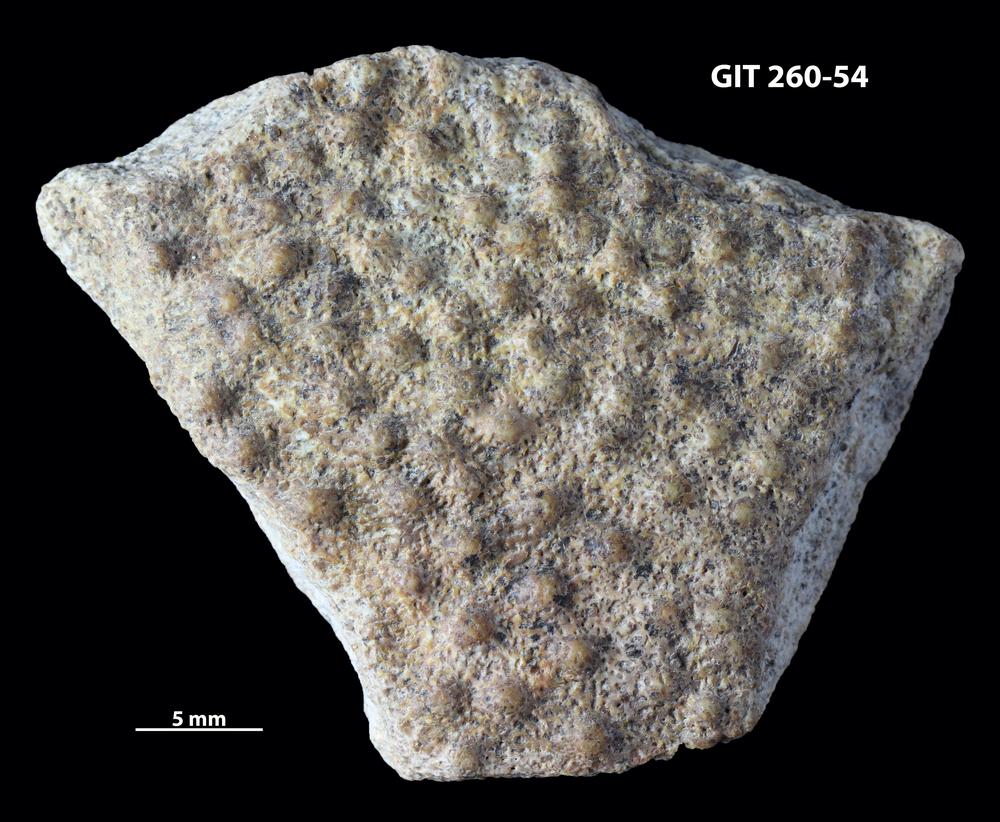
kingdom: Animalia
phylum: Chordata
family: Homostiidae
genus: Homostius
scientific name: Homostius
